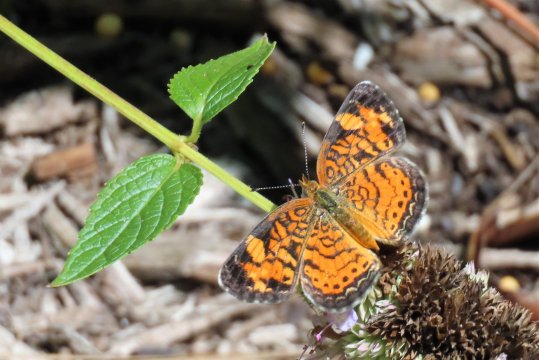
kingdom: Animalia
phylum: Arthropoda
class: Insecta
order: Lepidoptera
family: Nymphalidae
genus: Phyciodes
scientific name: Phyciodes tharos
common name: Pearl Crescent
